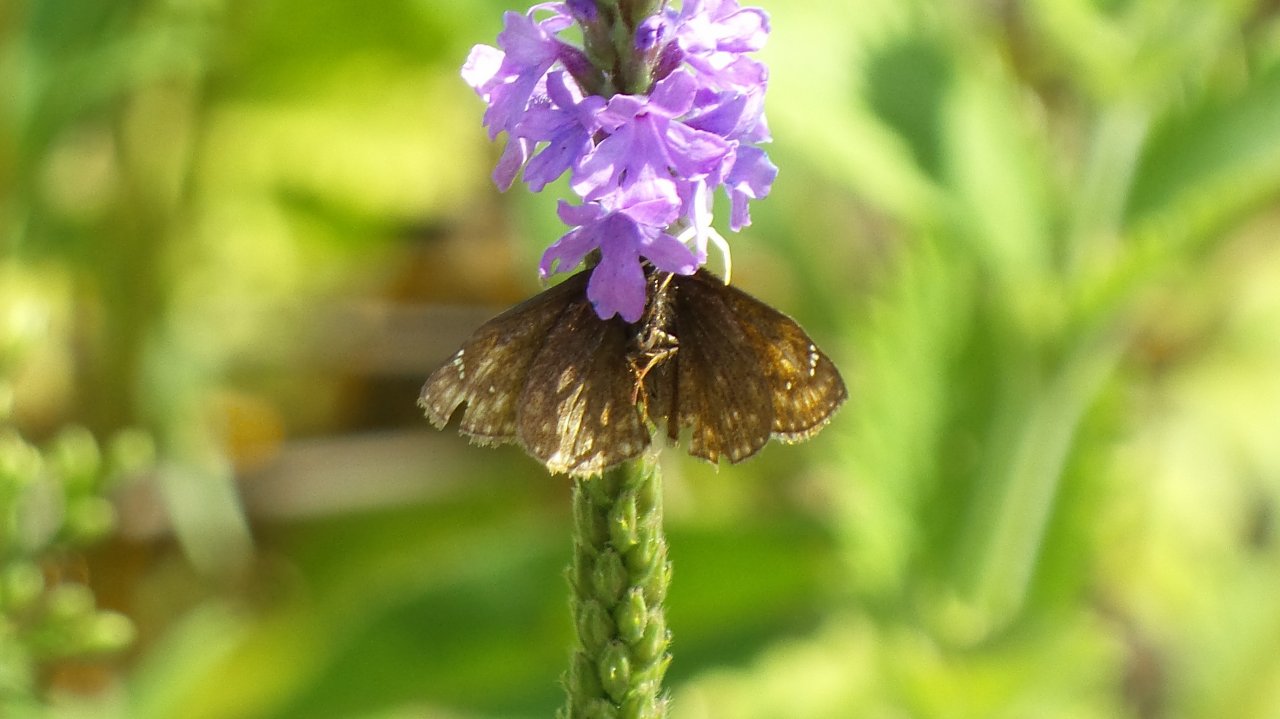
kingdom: Animalia
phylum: Arthropoda
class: Insecta
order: Lepidoptera
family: Hesperiidae
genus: Euphyes
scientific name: Euphyes vestris
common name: Dun Skipper
